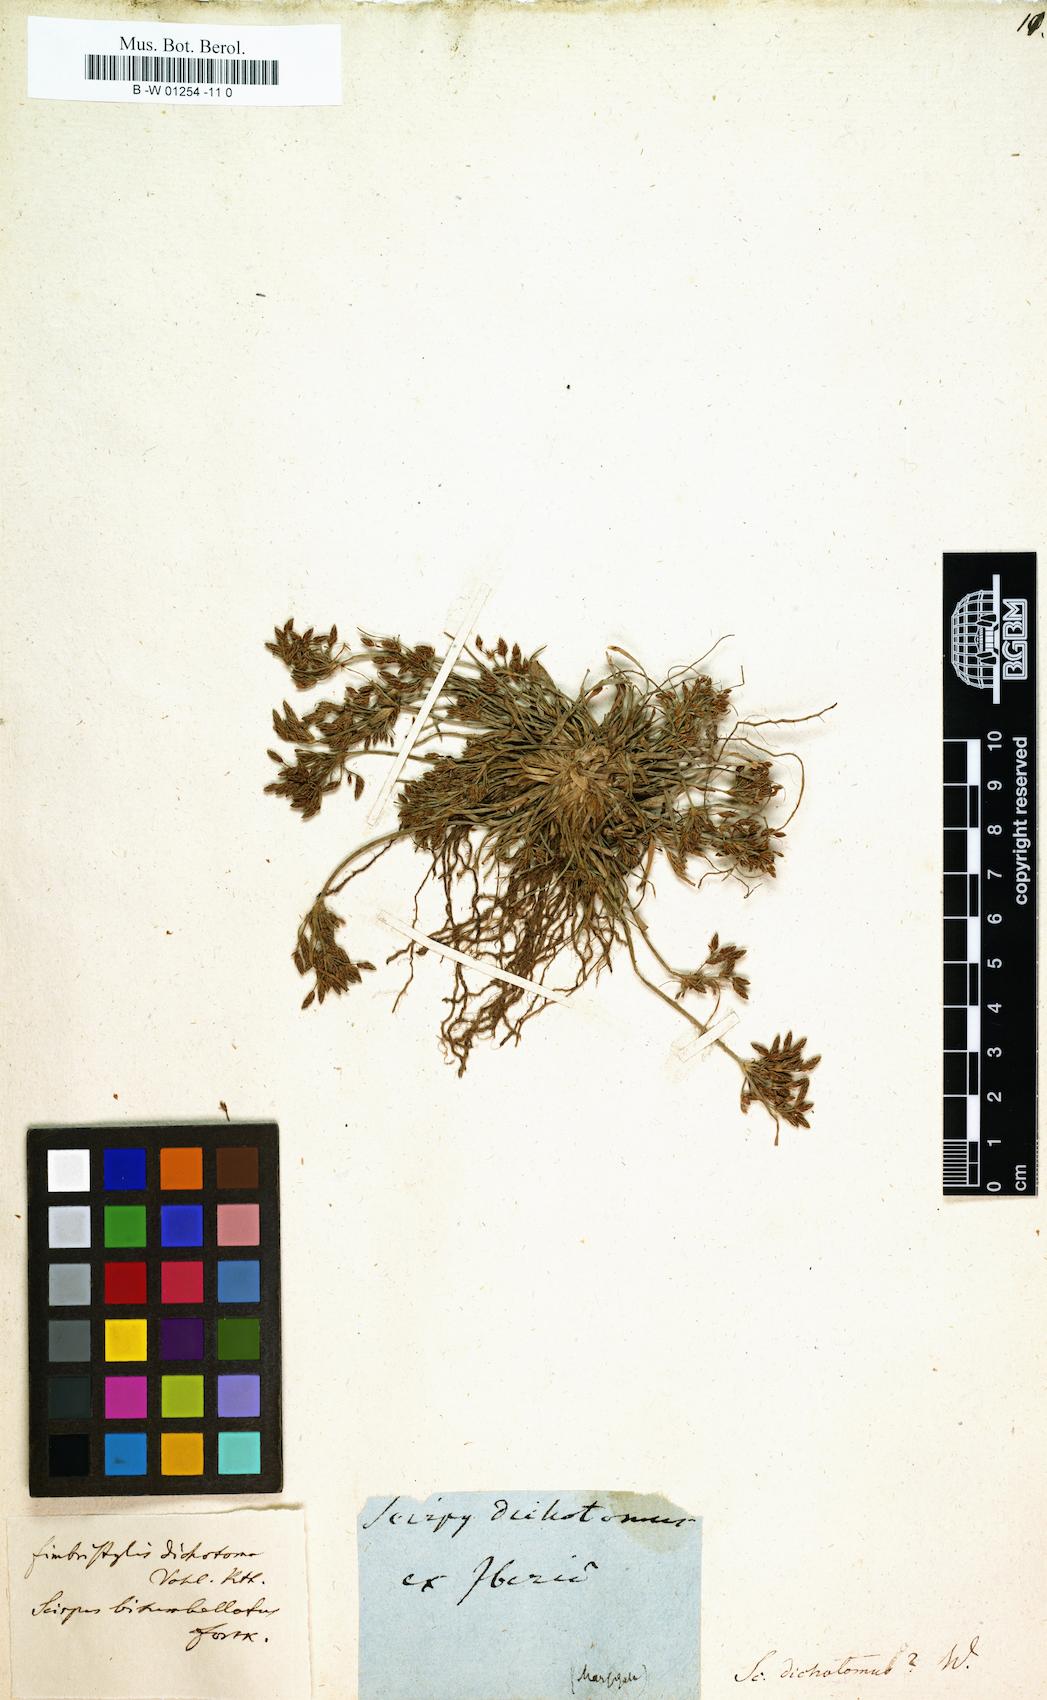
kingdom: Plantae
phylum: Tracheophyta
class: Liliopsida
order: Poales
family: Cyperaceae
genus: Scirpus
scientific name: Scirpus dichotomus
